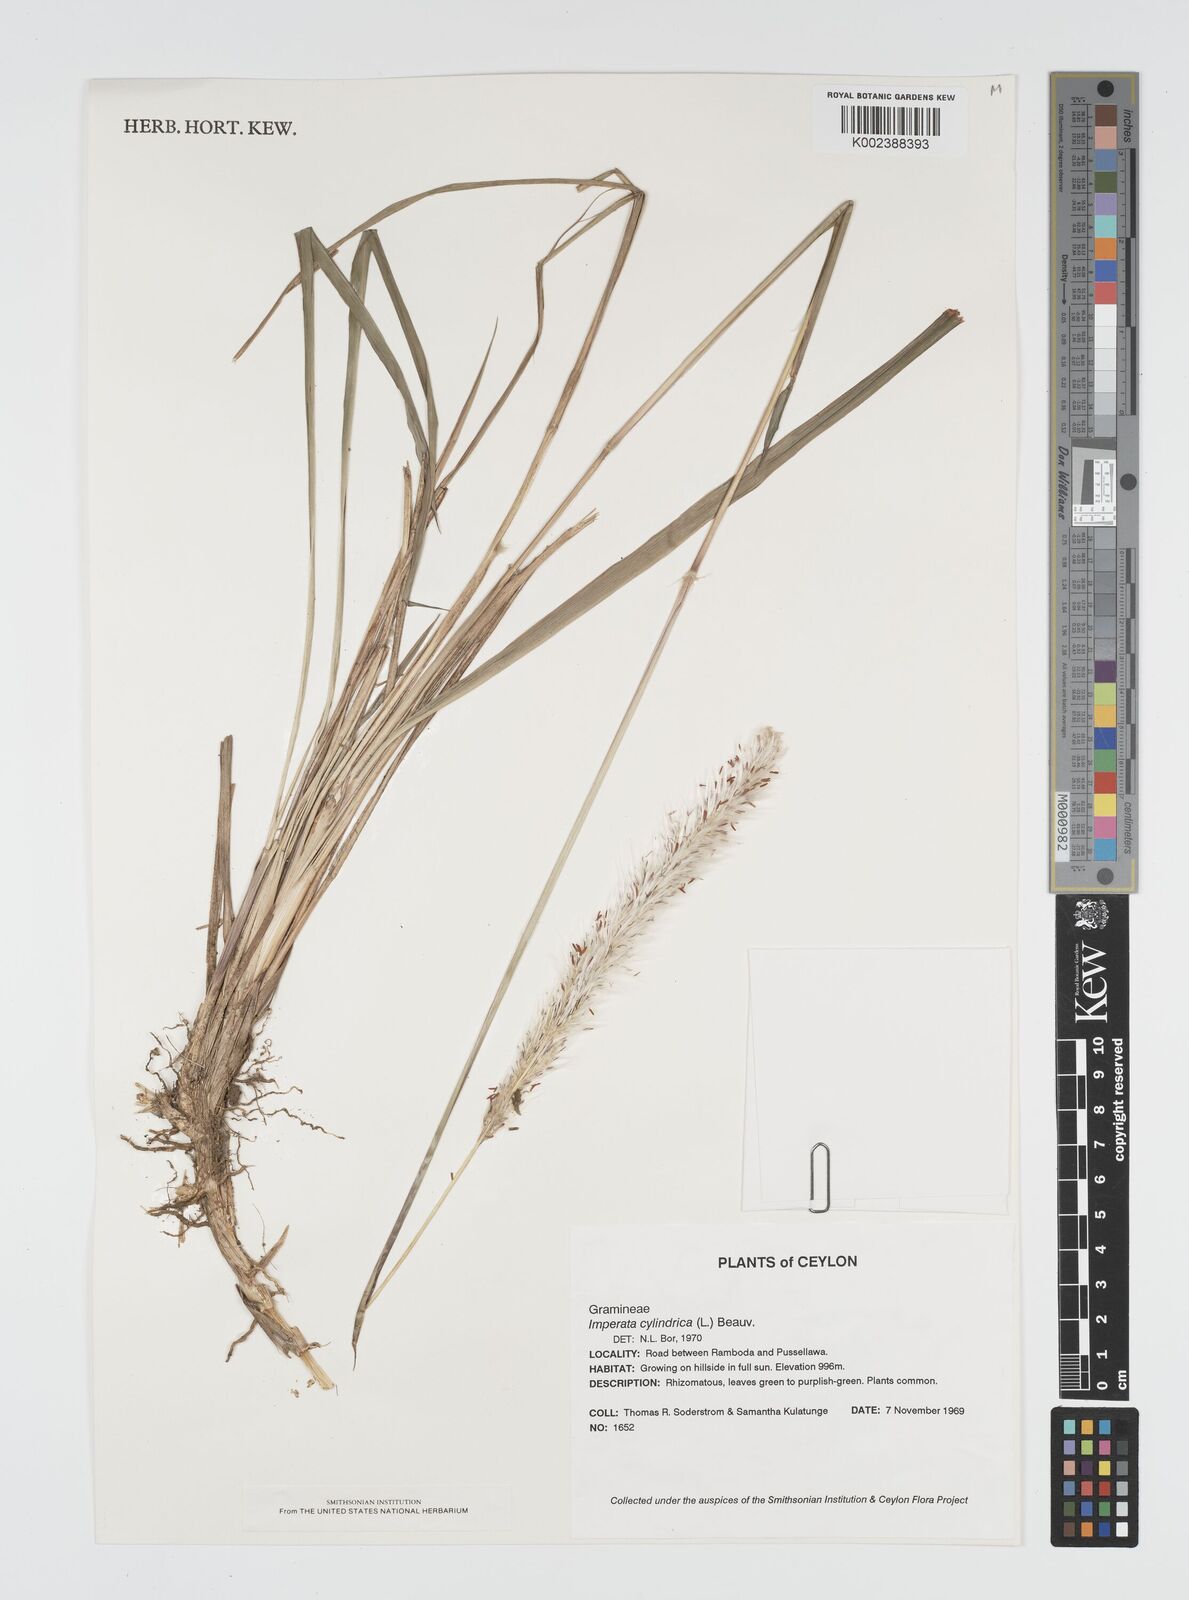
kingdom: Plantae
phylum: Tracheophyta
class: Liliopsida
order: Poales
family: Poaceae
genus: Imperata
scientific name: Imperata cylindrica
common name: Cogongrass
